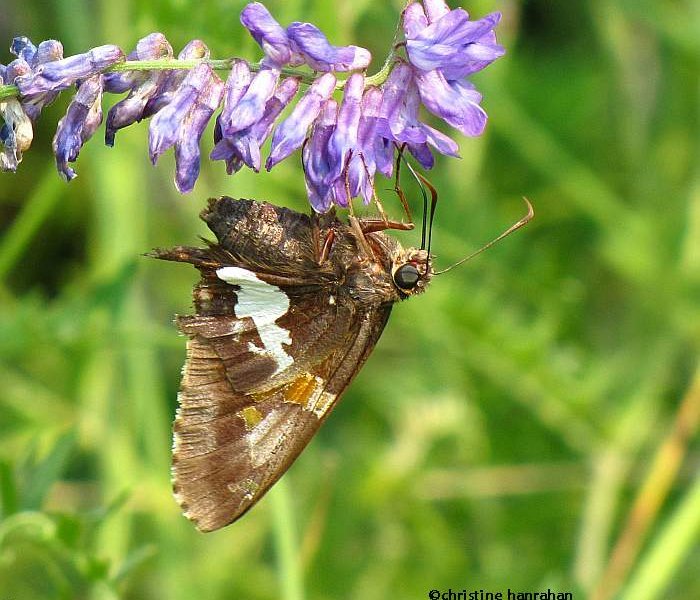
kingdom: Animalia
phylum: Arthropoda
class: Insecta
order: Lepidoptera
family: Hesperiidae
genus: Epargyreus
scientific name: Epargyreus clarus
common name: Silver-spotted Skipper
